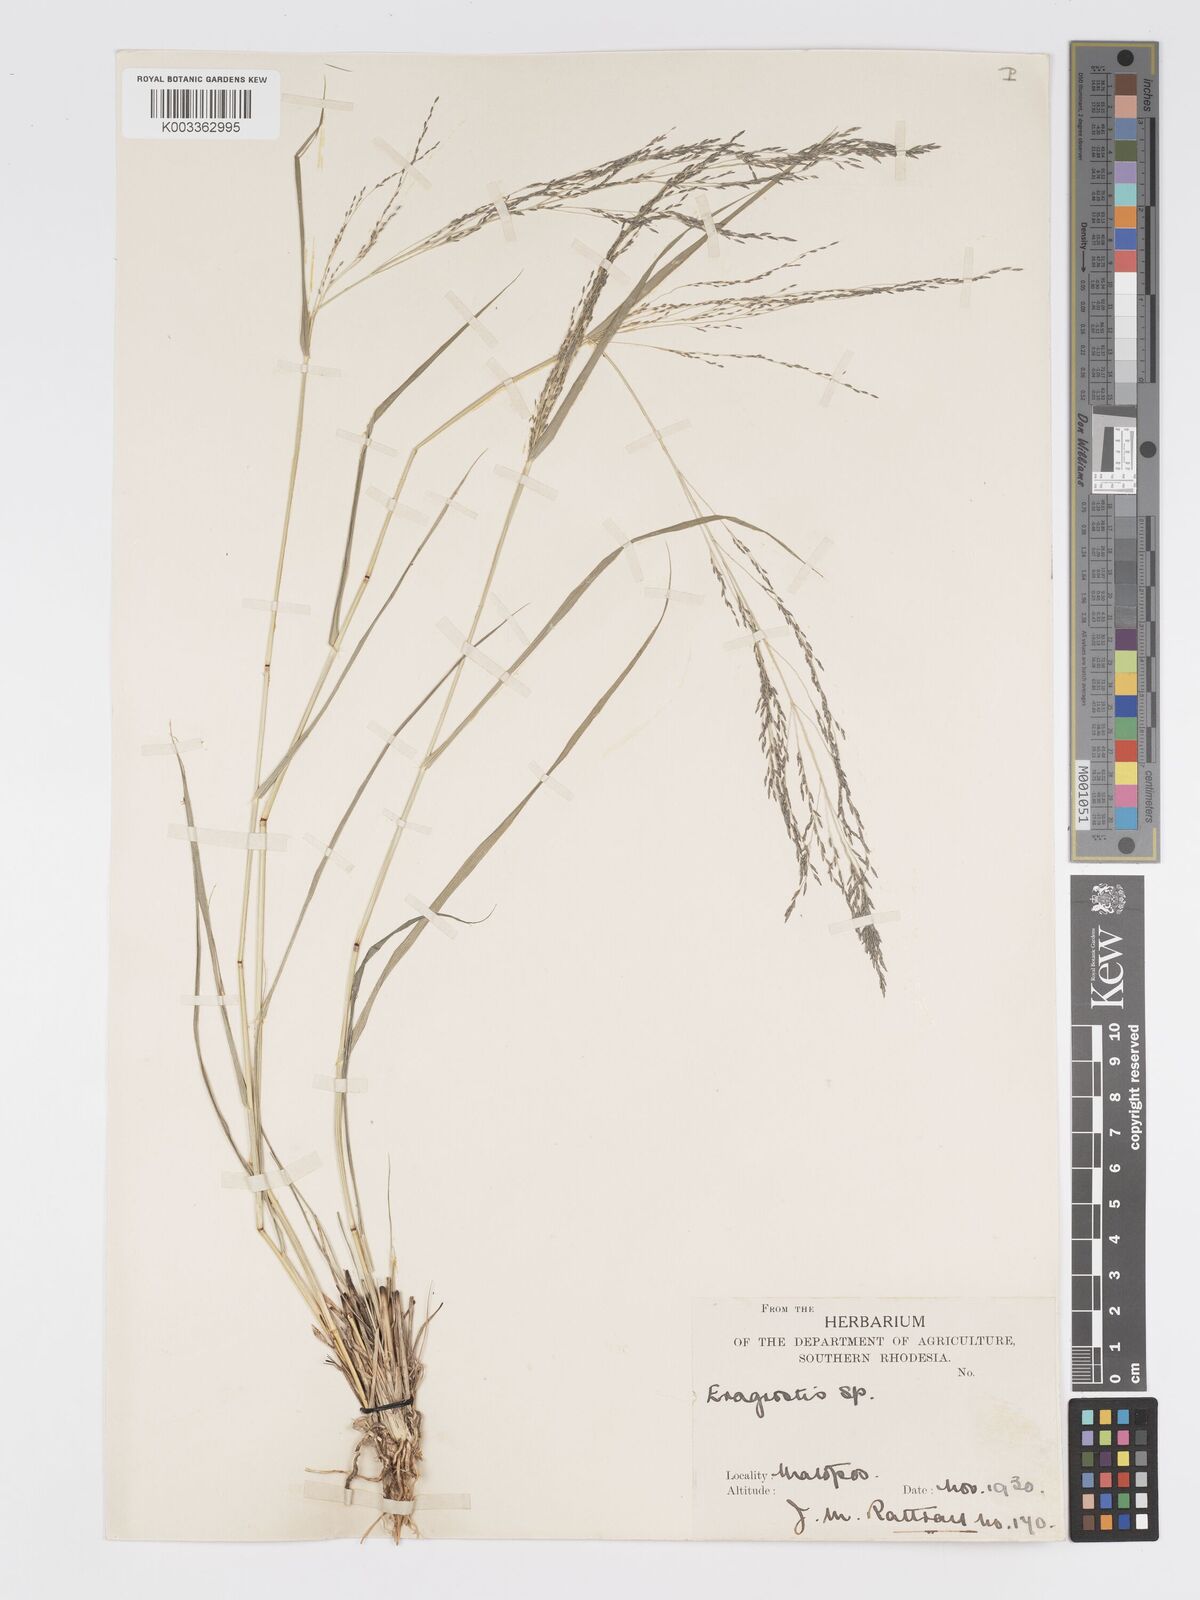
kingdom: Plantae
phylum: Tracheophyta
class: Liliopsida
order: Poales
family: Poaceae
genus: Eragrostis
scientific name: Eragrostis cylindriflora
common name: Cylinderflower lovegrass
